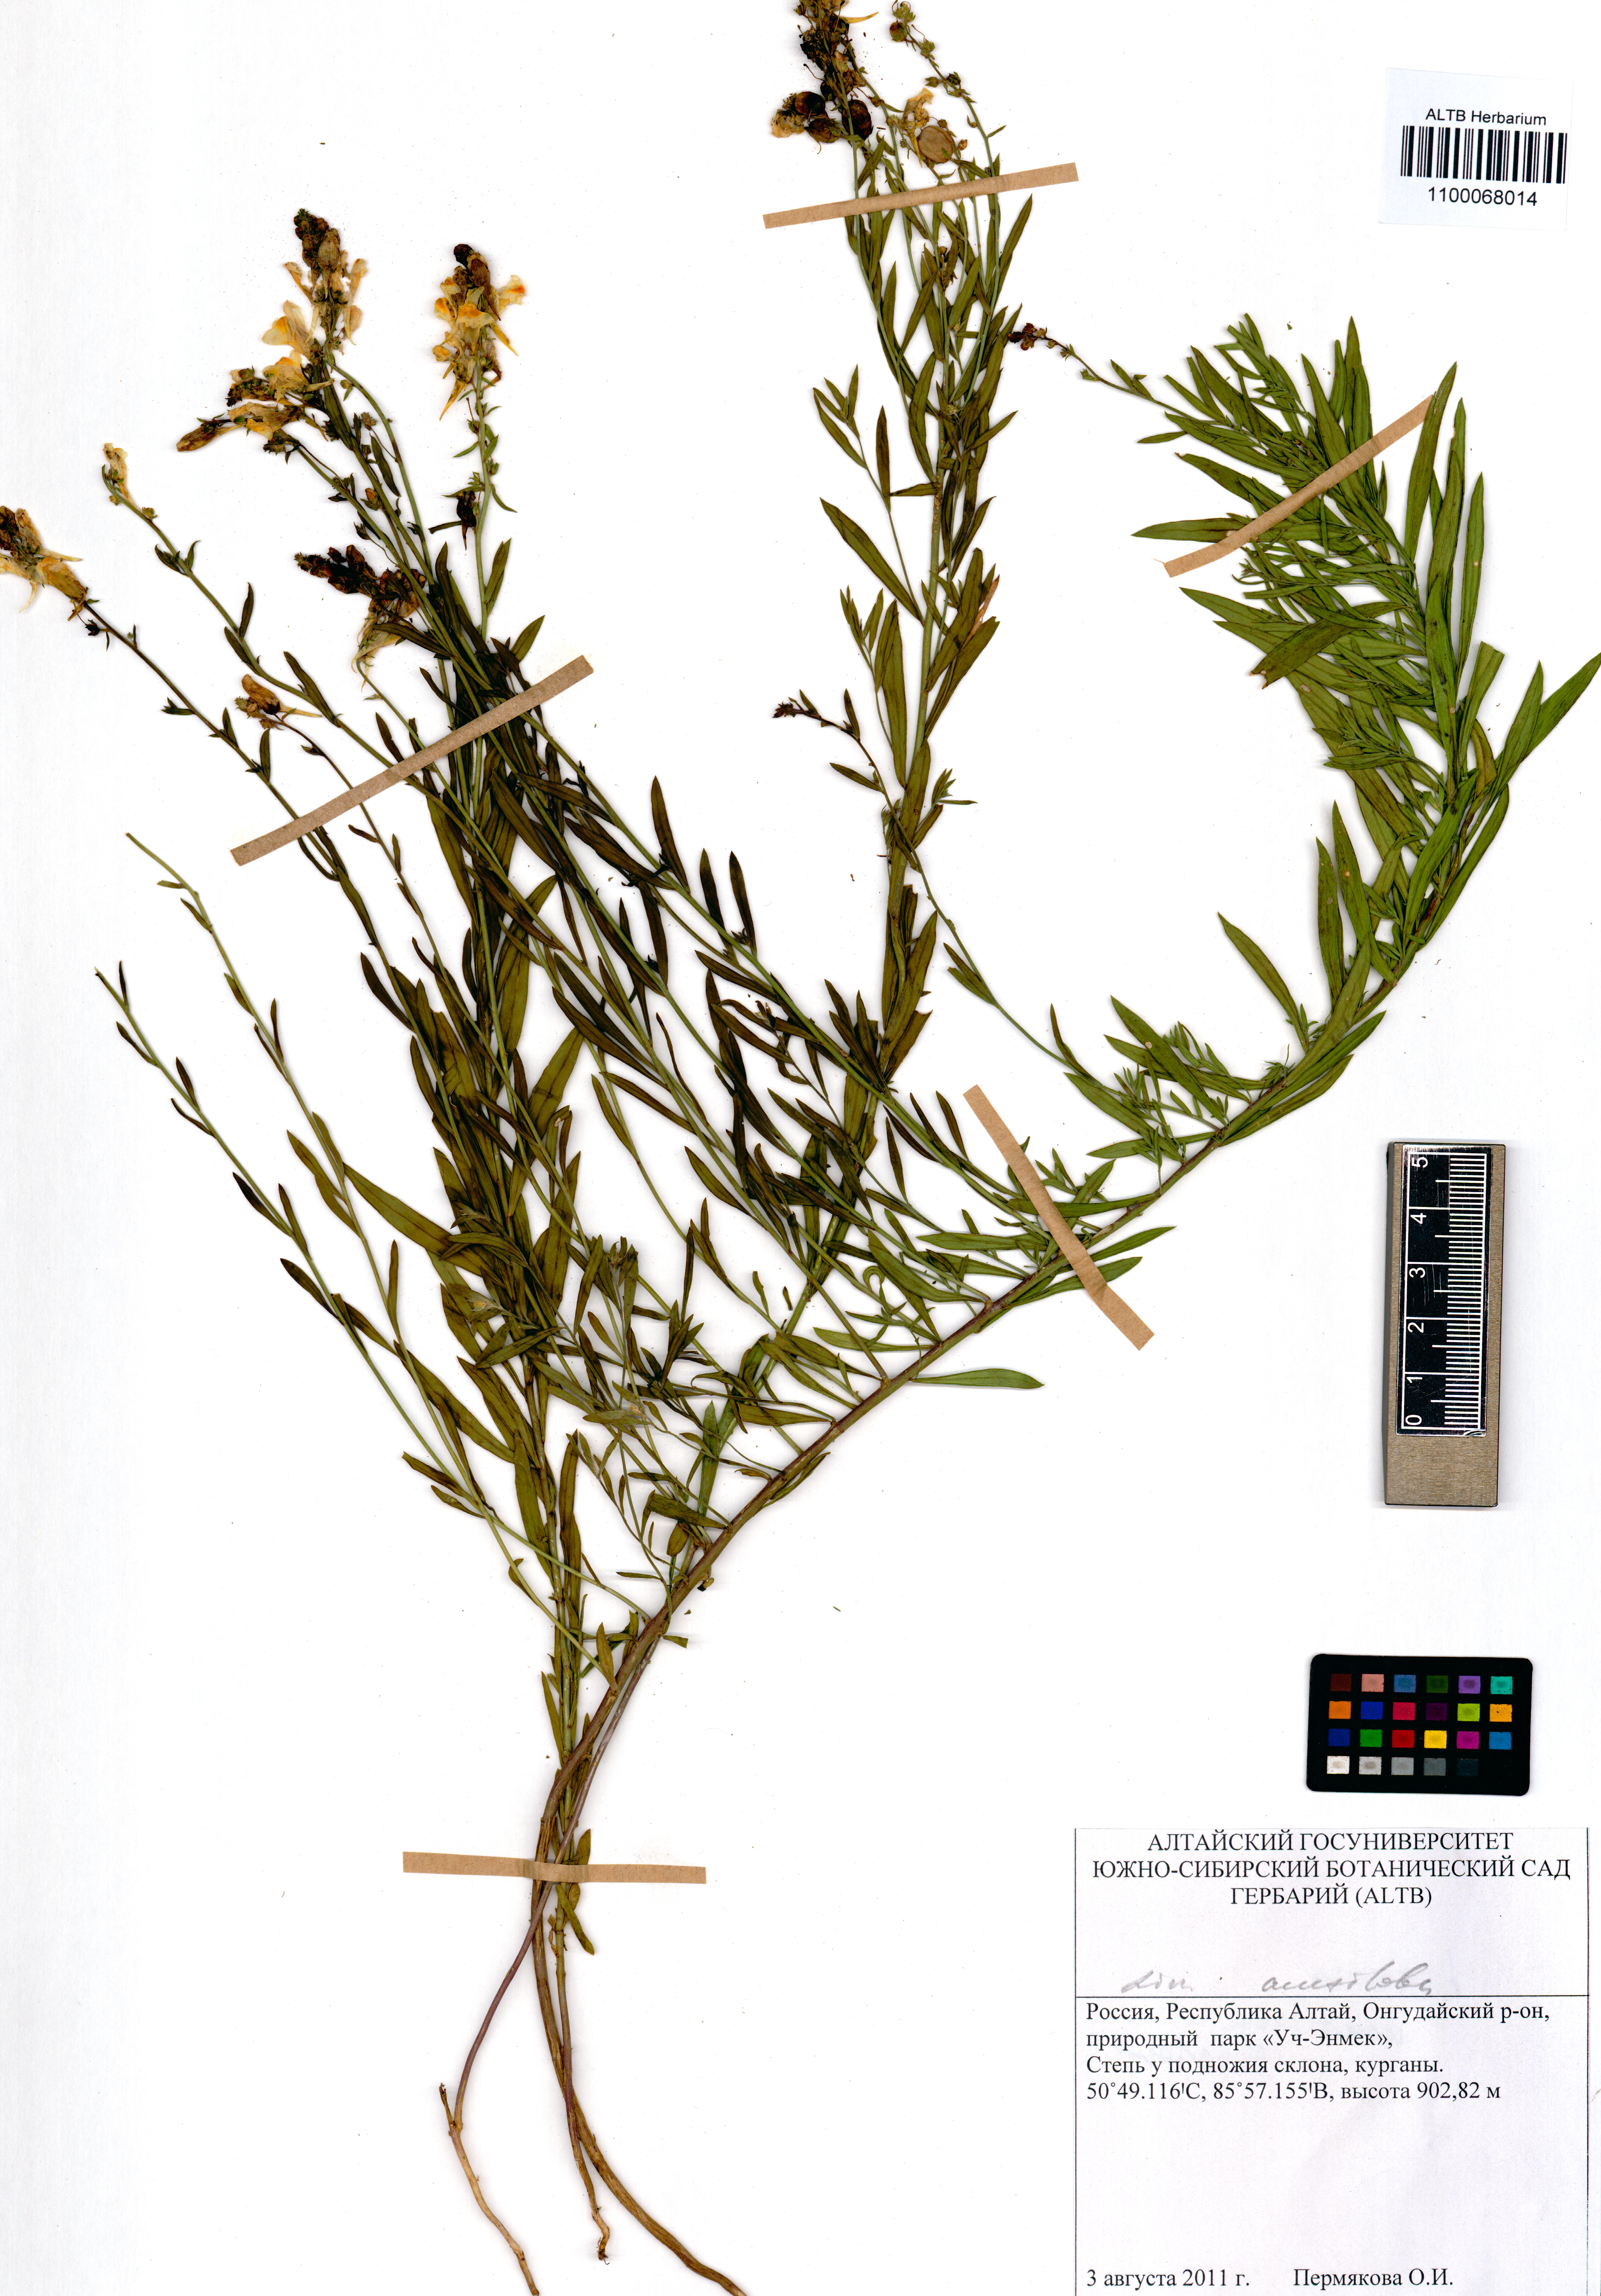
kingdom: Plantae
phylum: Tracheophyta
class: Magnoliopsida
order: Lamiales
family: Plantaginaceae
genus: Linaria
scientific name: Linaria acutiloba
